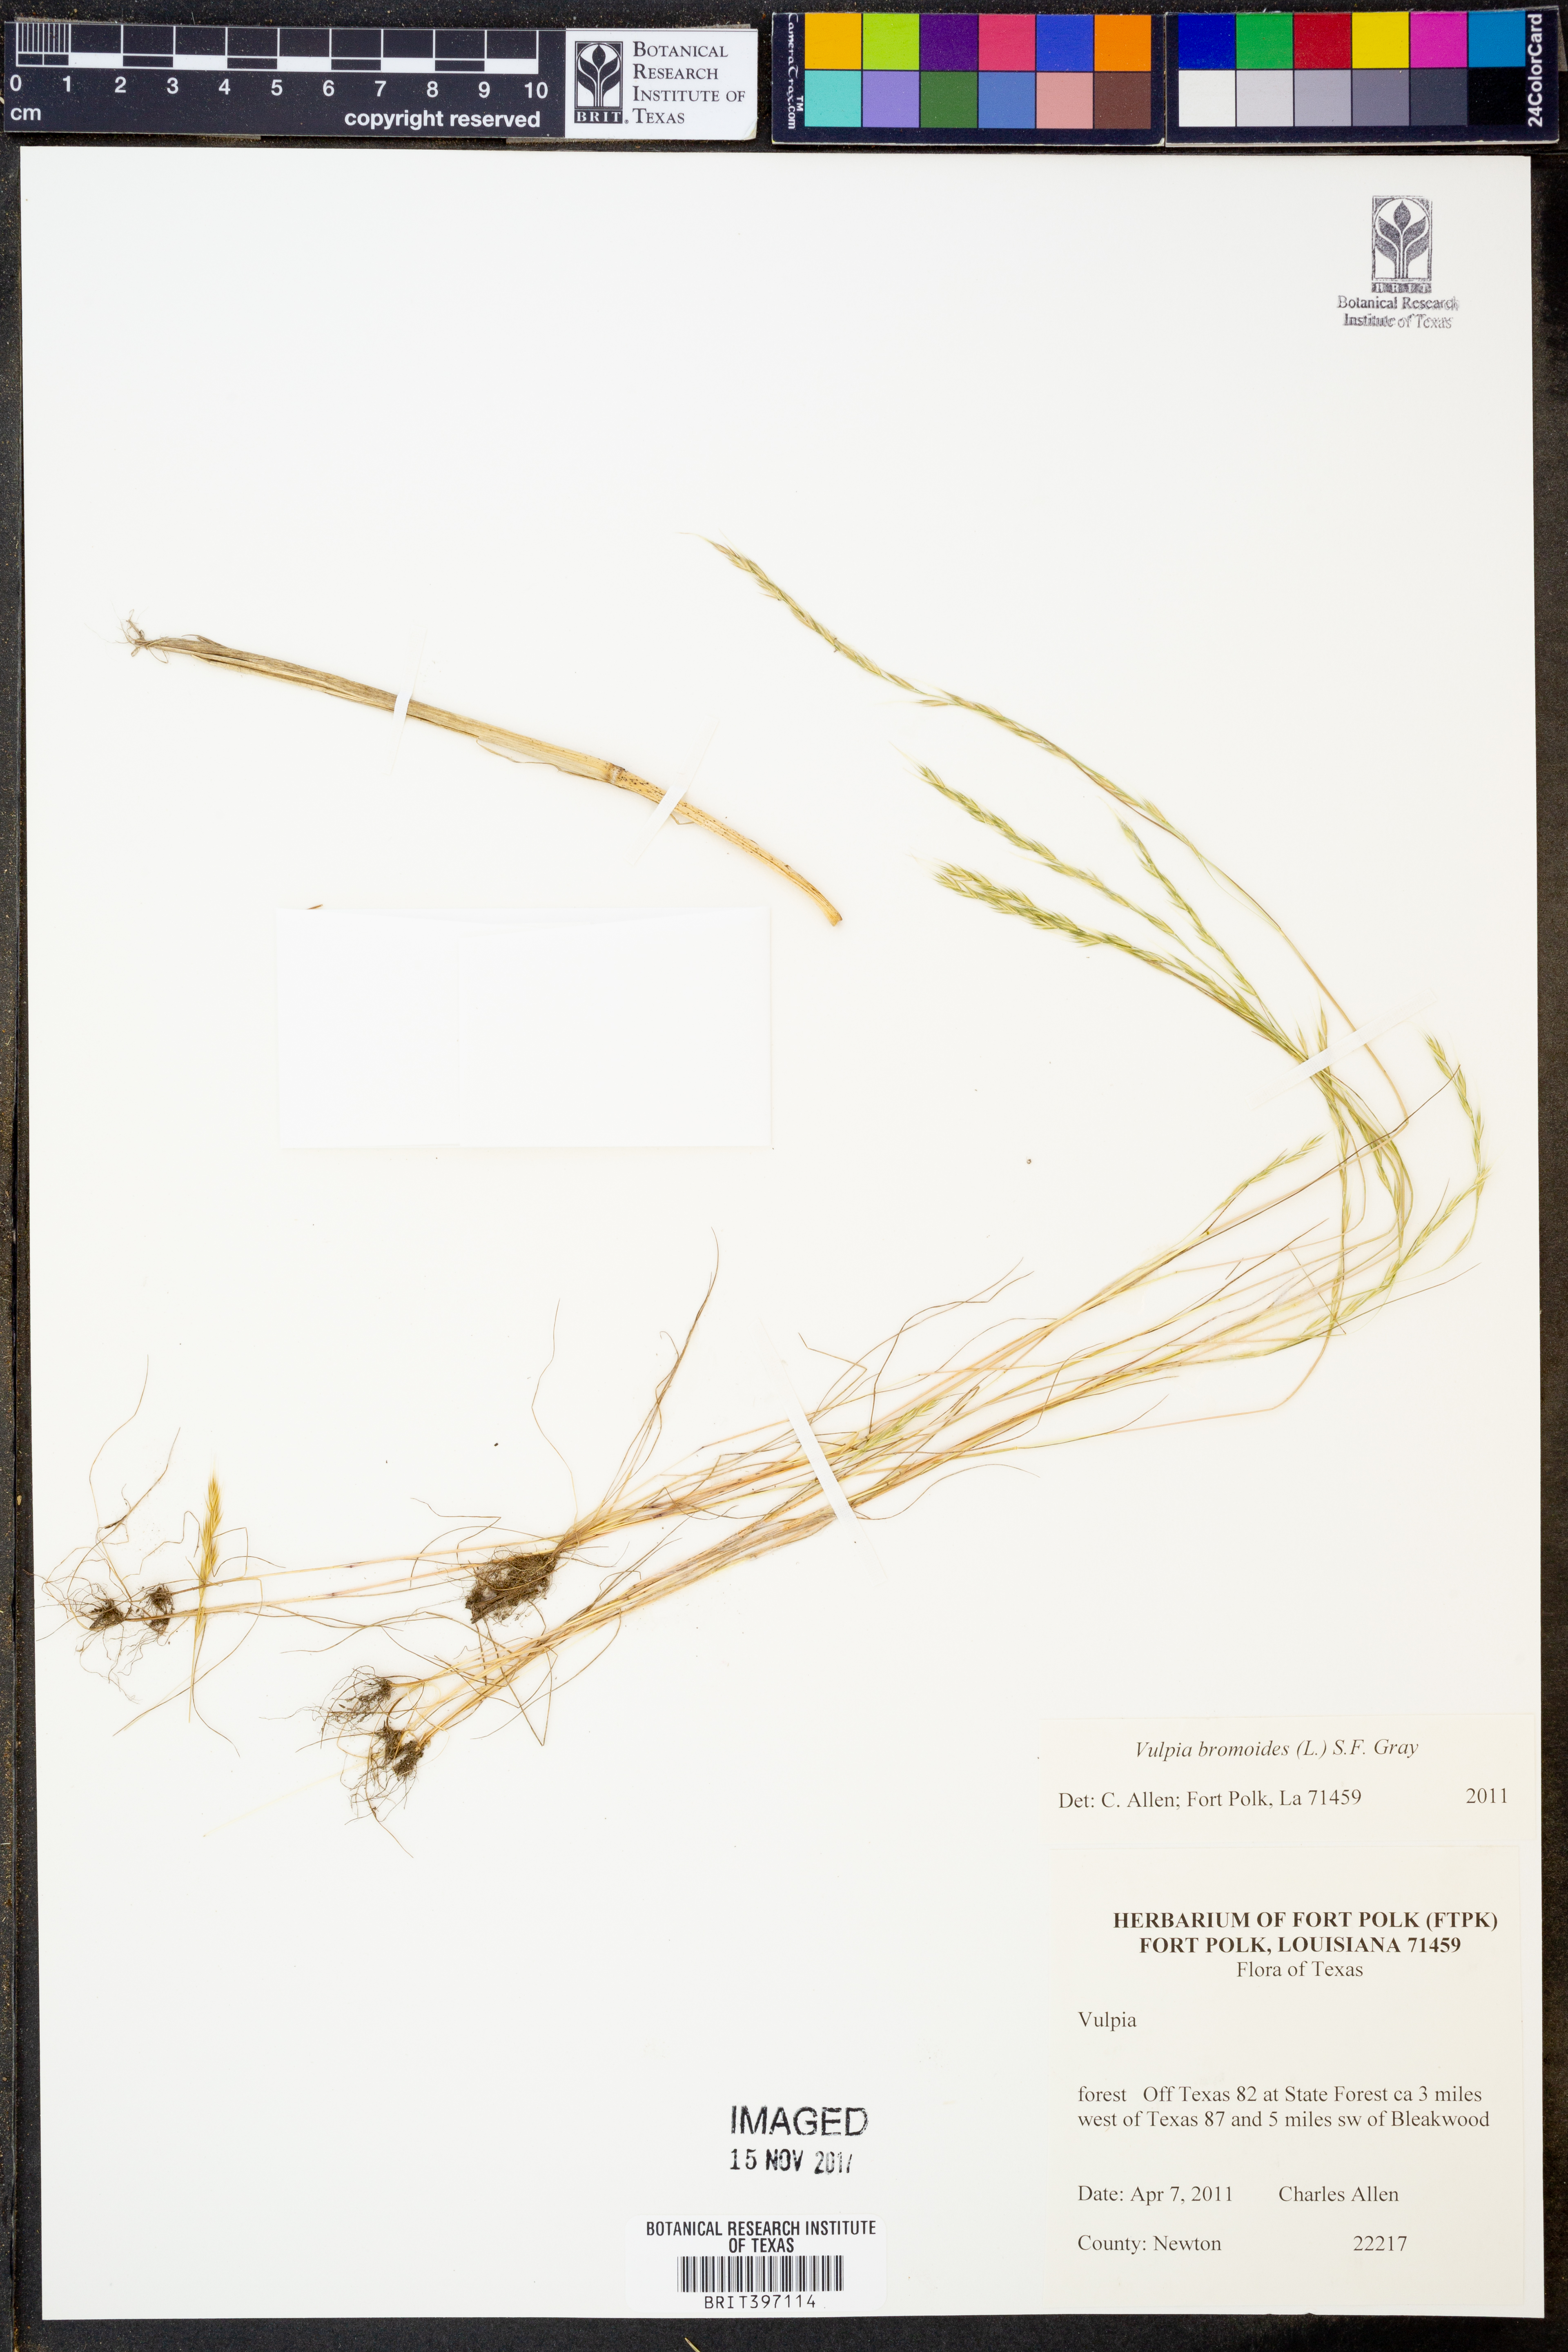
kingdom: Plantae
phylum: Tracheophyta
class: Liliopsida
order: Poales
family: Poaceae
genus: Festuca
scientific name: Festuca bromoides
